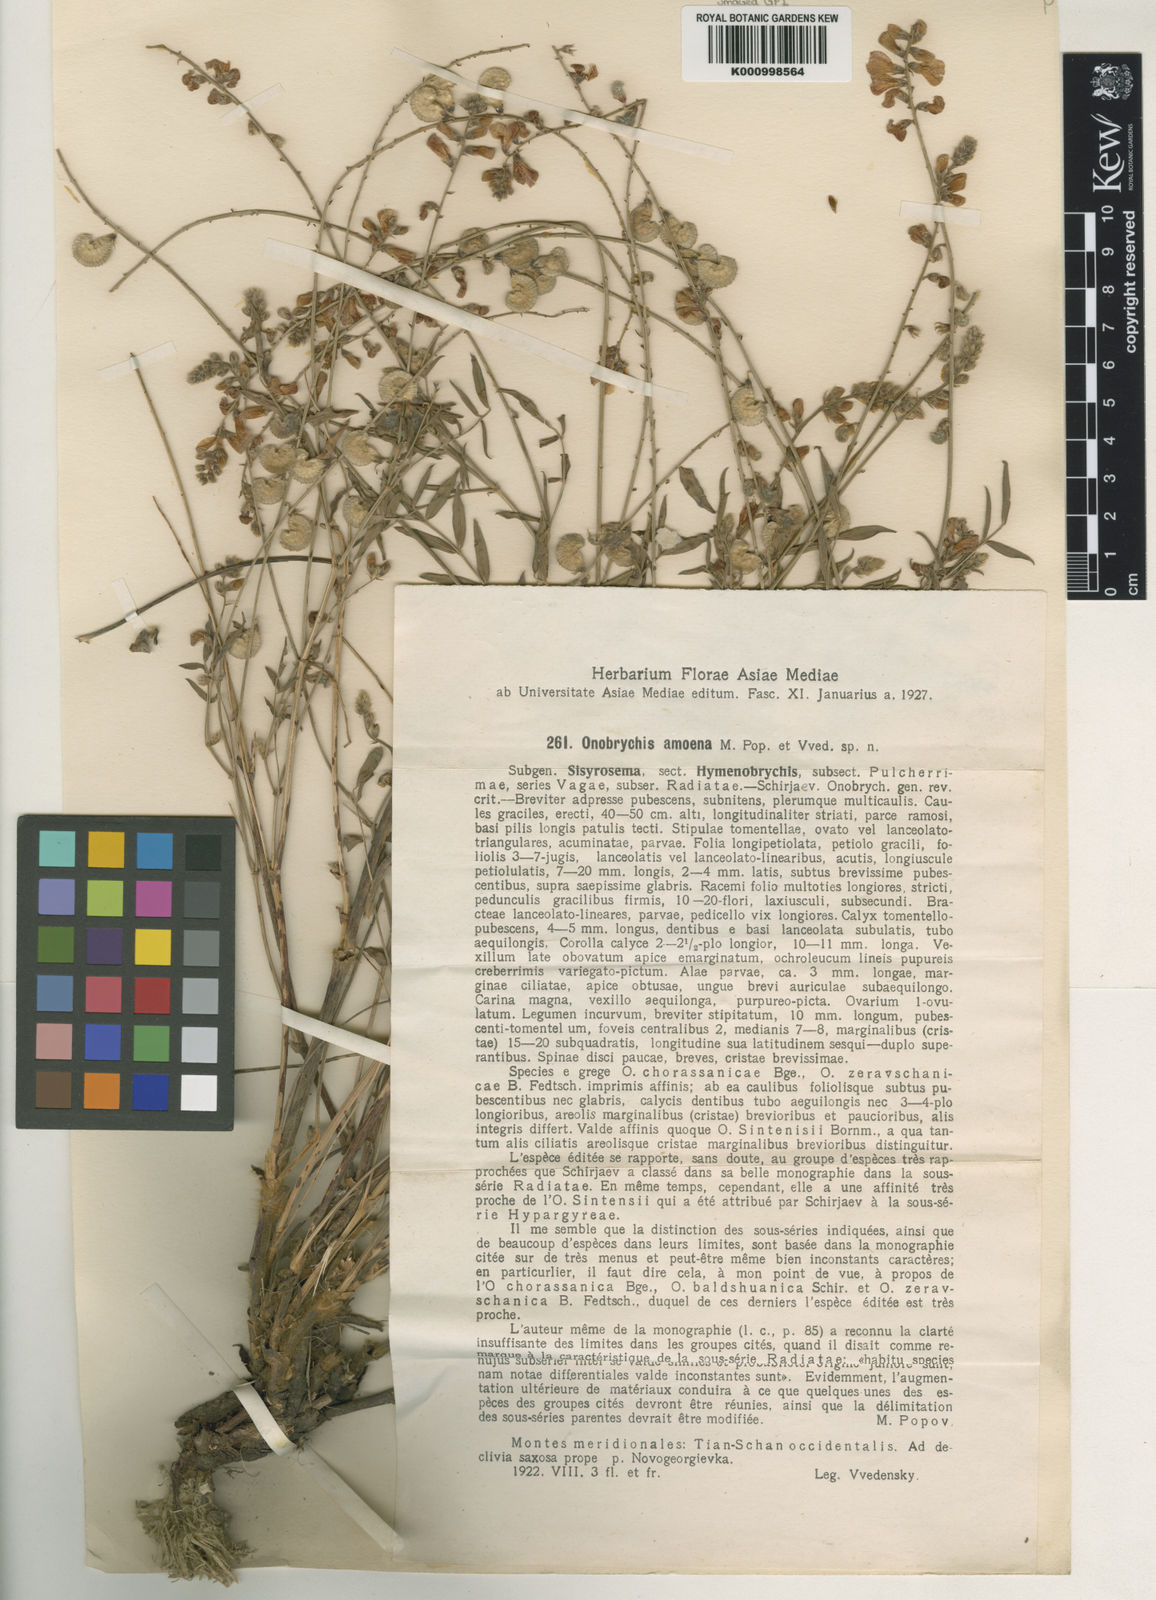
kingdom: Plantae
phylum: Tracheophyta
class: Magnoliopsida
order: Fabales
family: Fabaceae
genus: Onobrychis
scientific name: Onobrychis amoena
